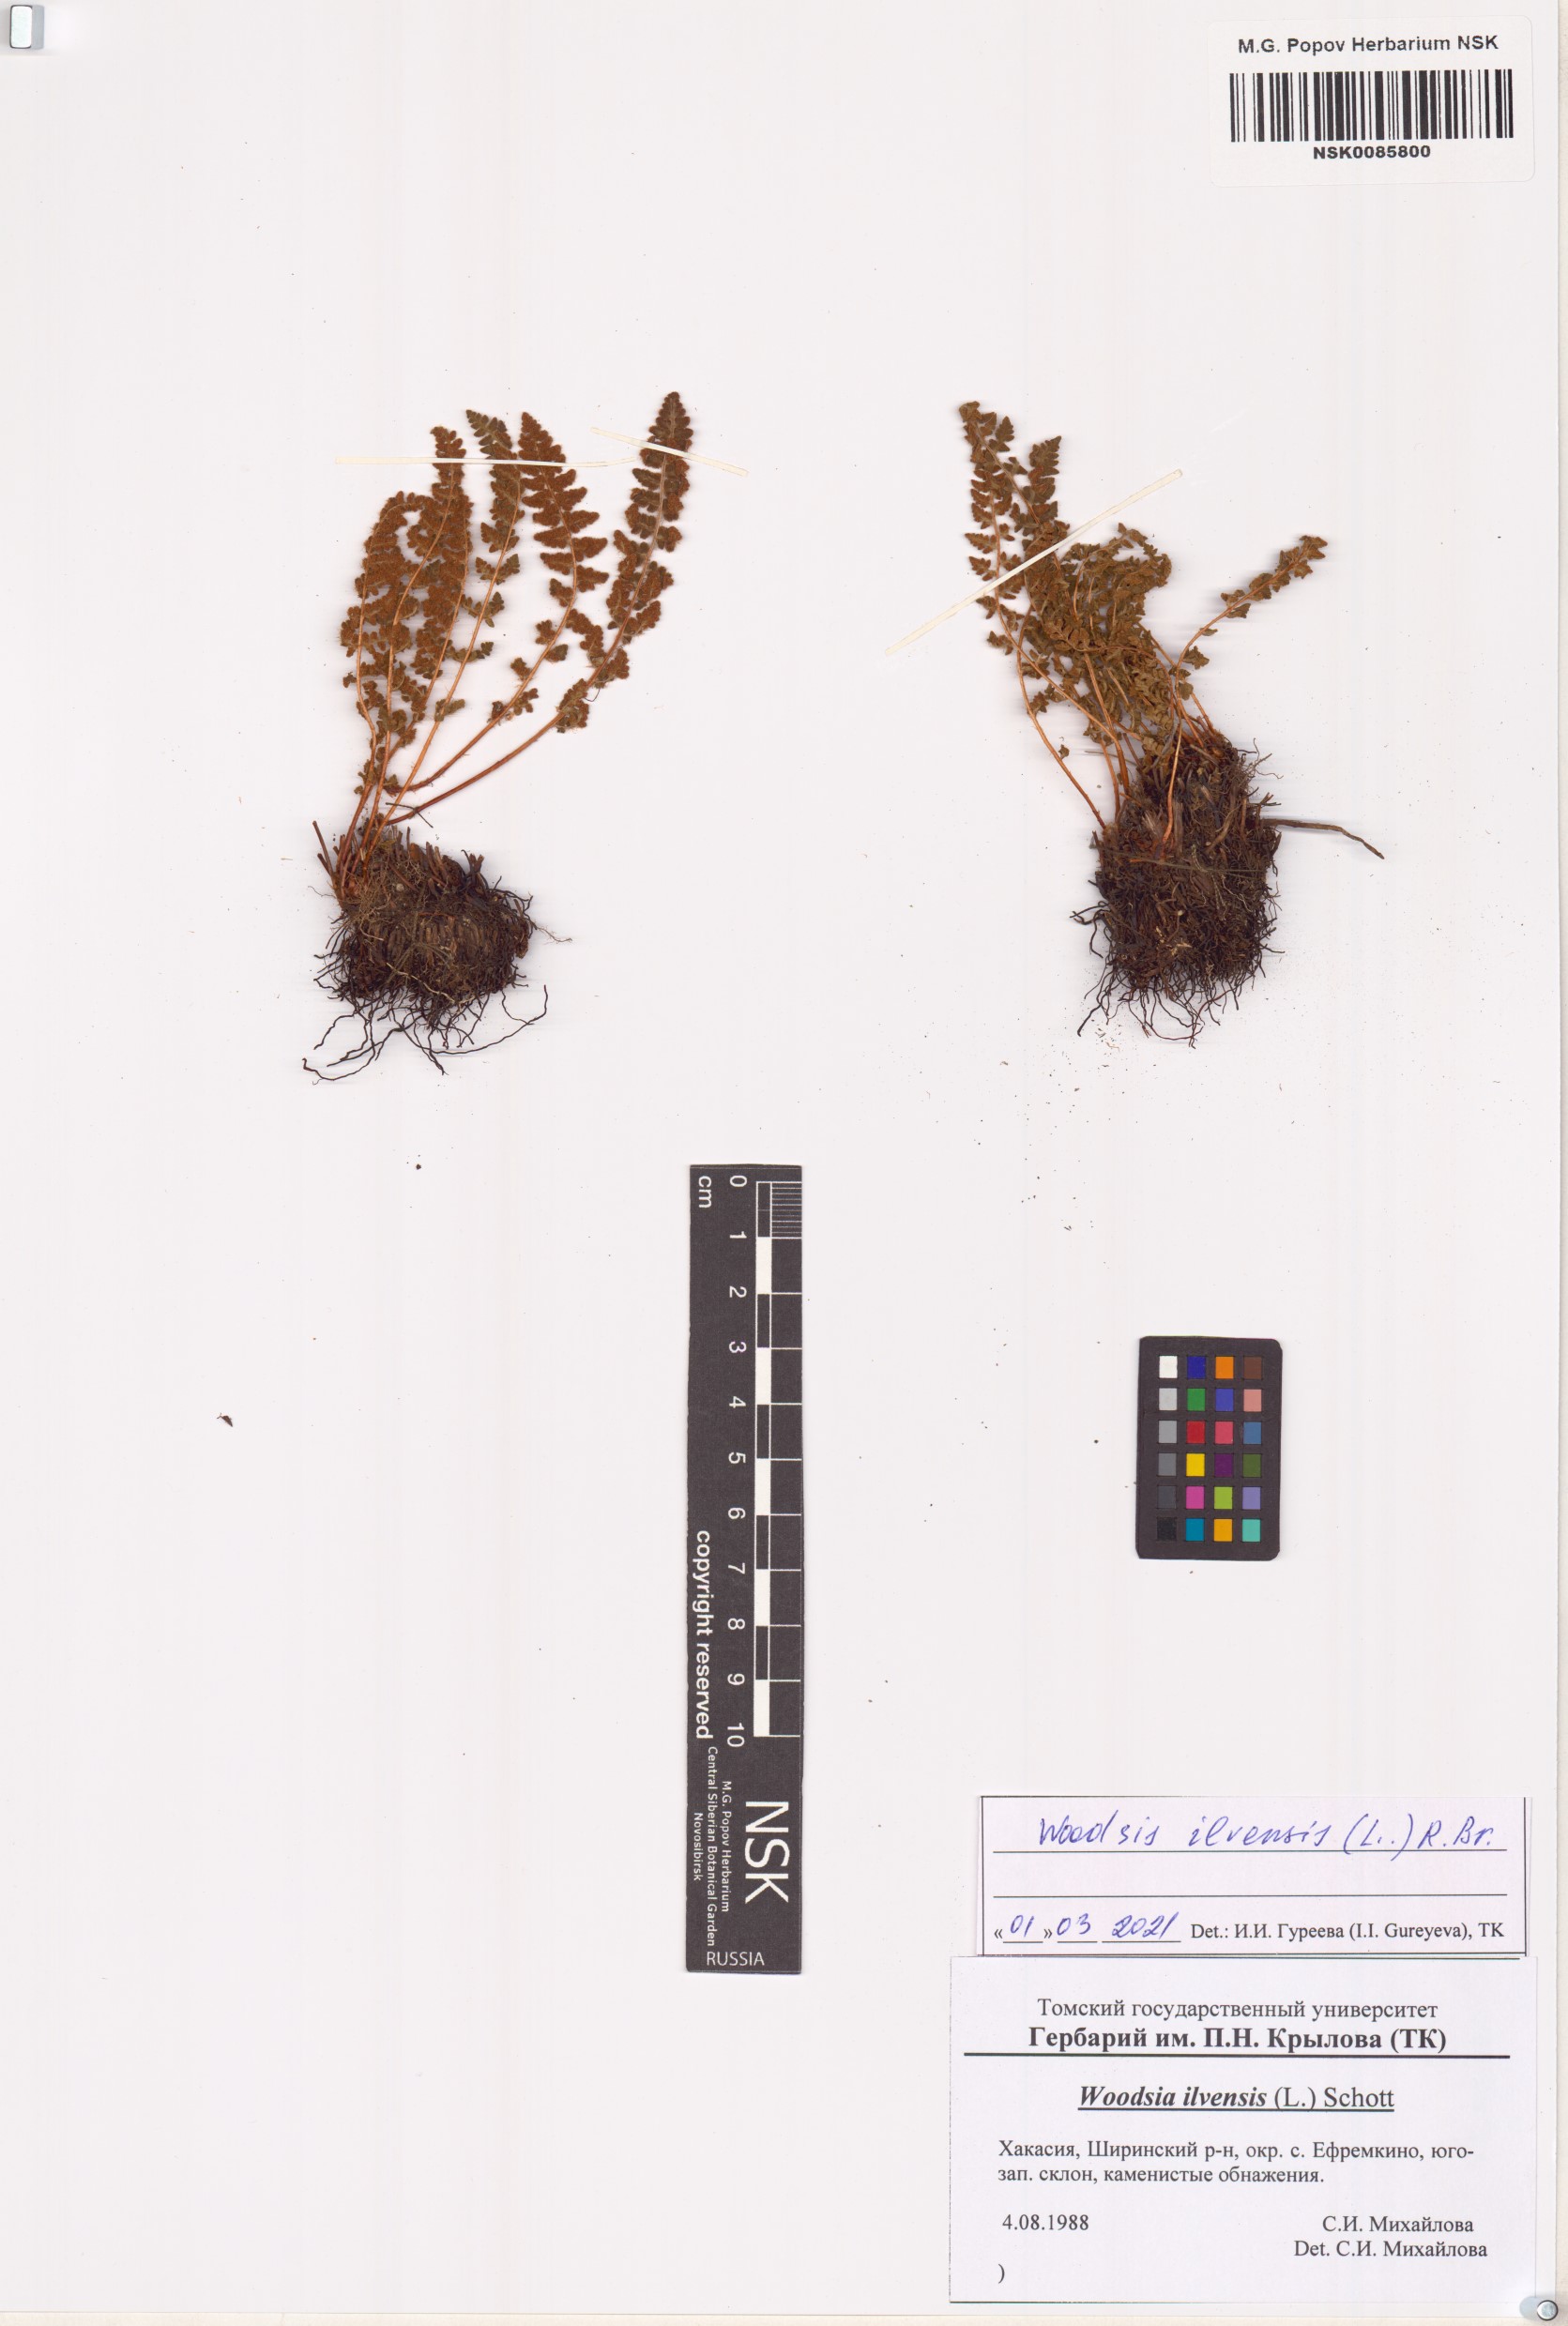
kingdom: Plantae
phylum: Tracheophyta
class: Polypodiopsida
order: Polypodiales
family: Woodsiaceae
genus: Woodsia
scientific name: Woodsia ilvensis
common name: Fragrant woodsia
